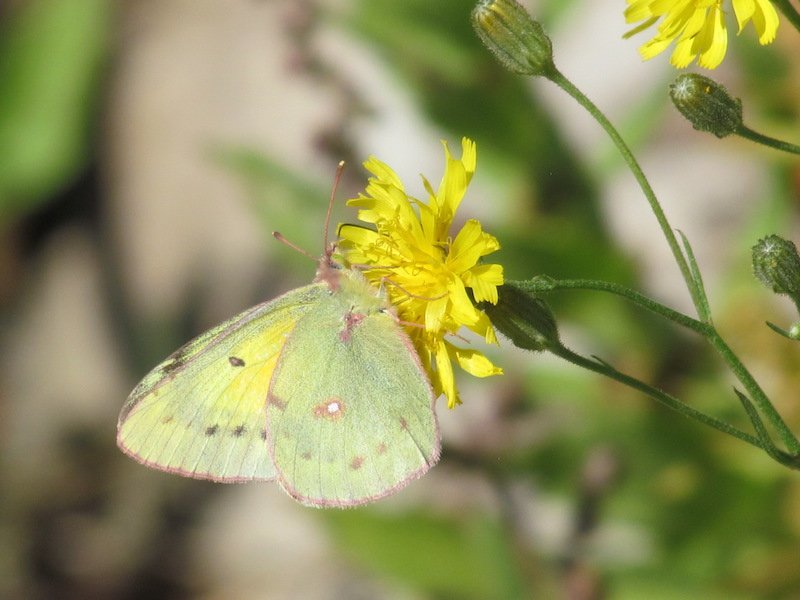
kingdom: Animalia
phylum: Arthropoda
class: Insecta
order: Lepidoptera
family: Pieridae
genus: Colias
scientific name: Colias eurytheme
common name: Orange Sulphur
